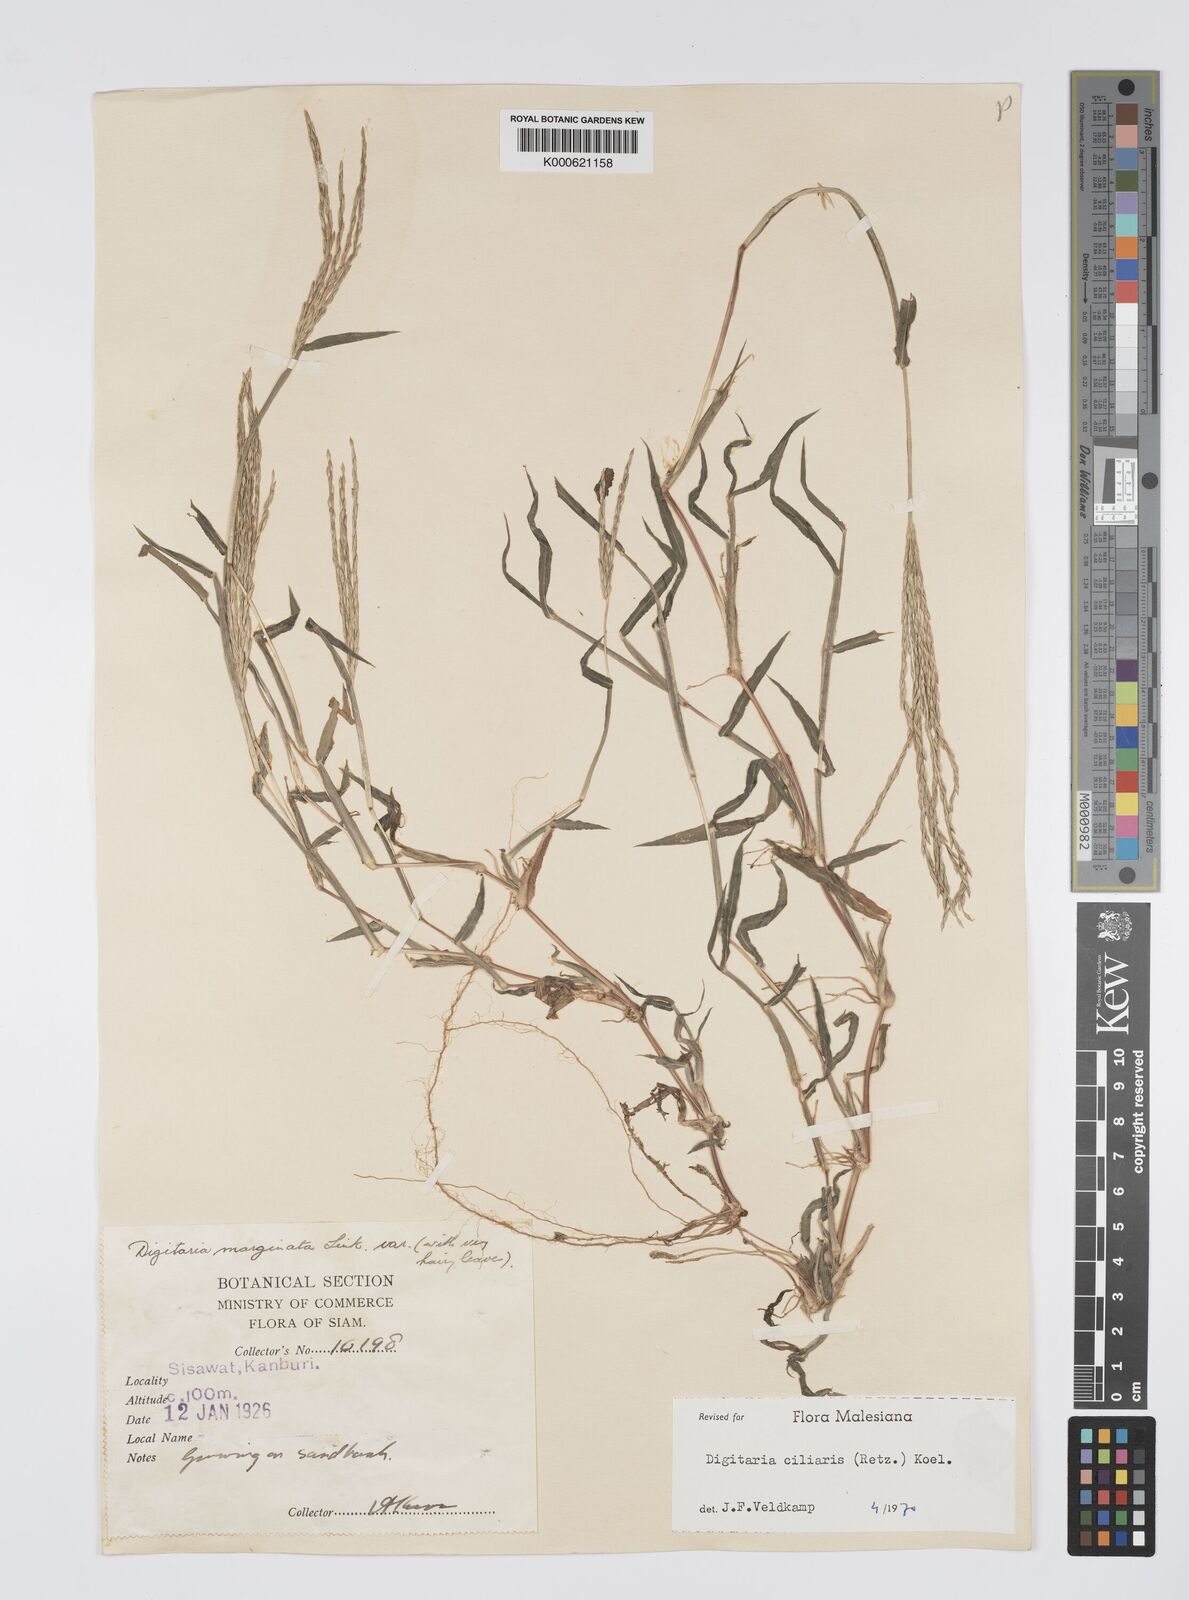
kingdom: Plantae
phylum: Tracheophyta
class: Liliopsida
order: Poales
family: Poaceae
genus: Digitaria
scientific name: Digitaria ciliaris
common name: Tropical finger-grass
